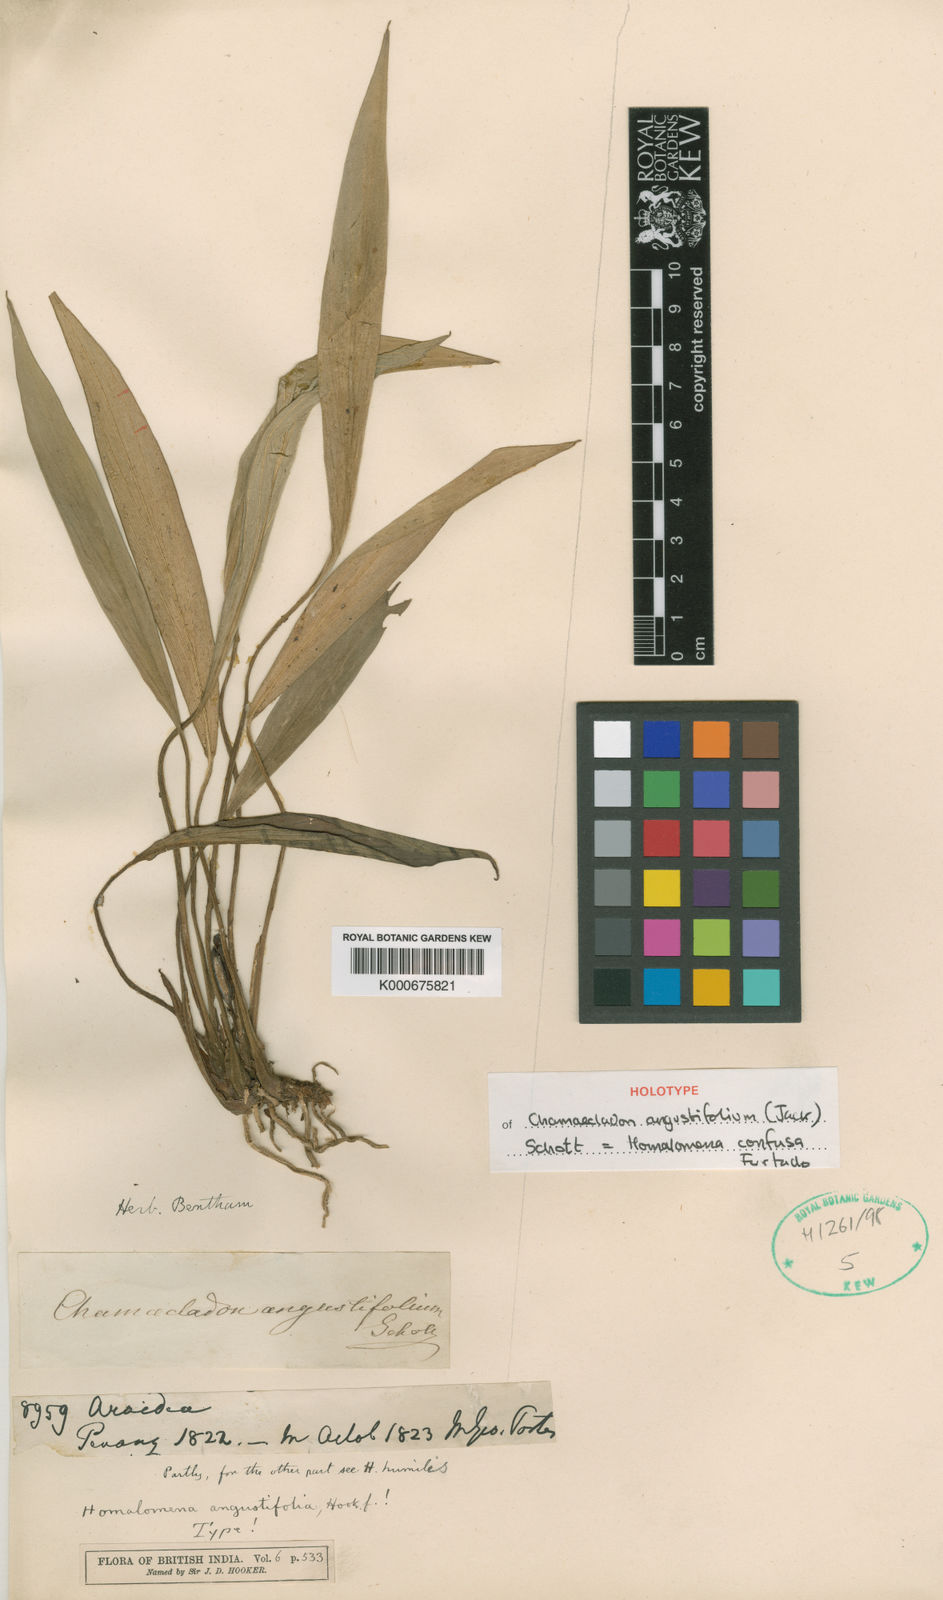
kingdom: Plantae
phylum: Tracheophyta
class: Liliopsida
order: Alismatales
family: Araceae
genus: Homalomena
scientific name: Homalomena humilis
